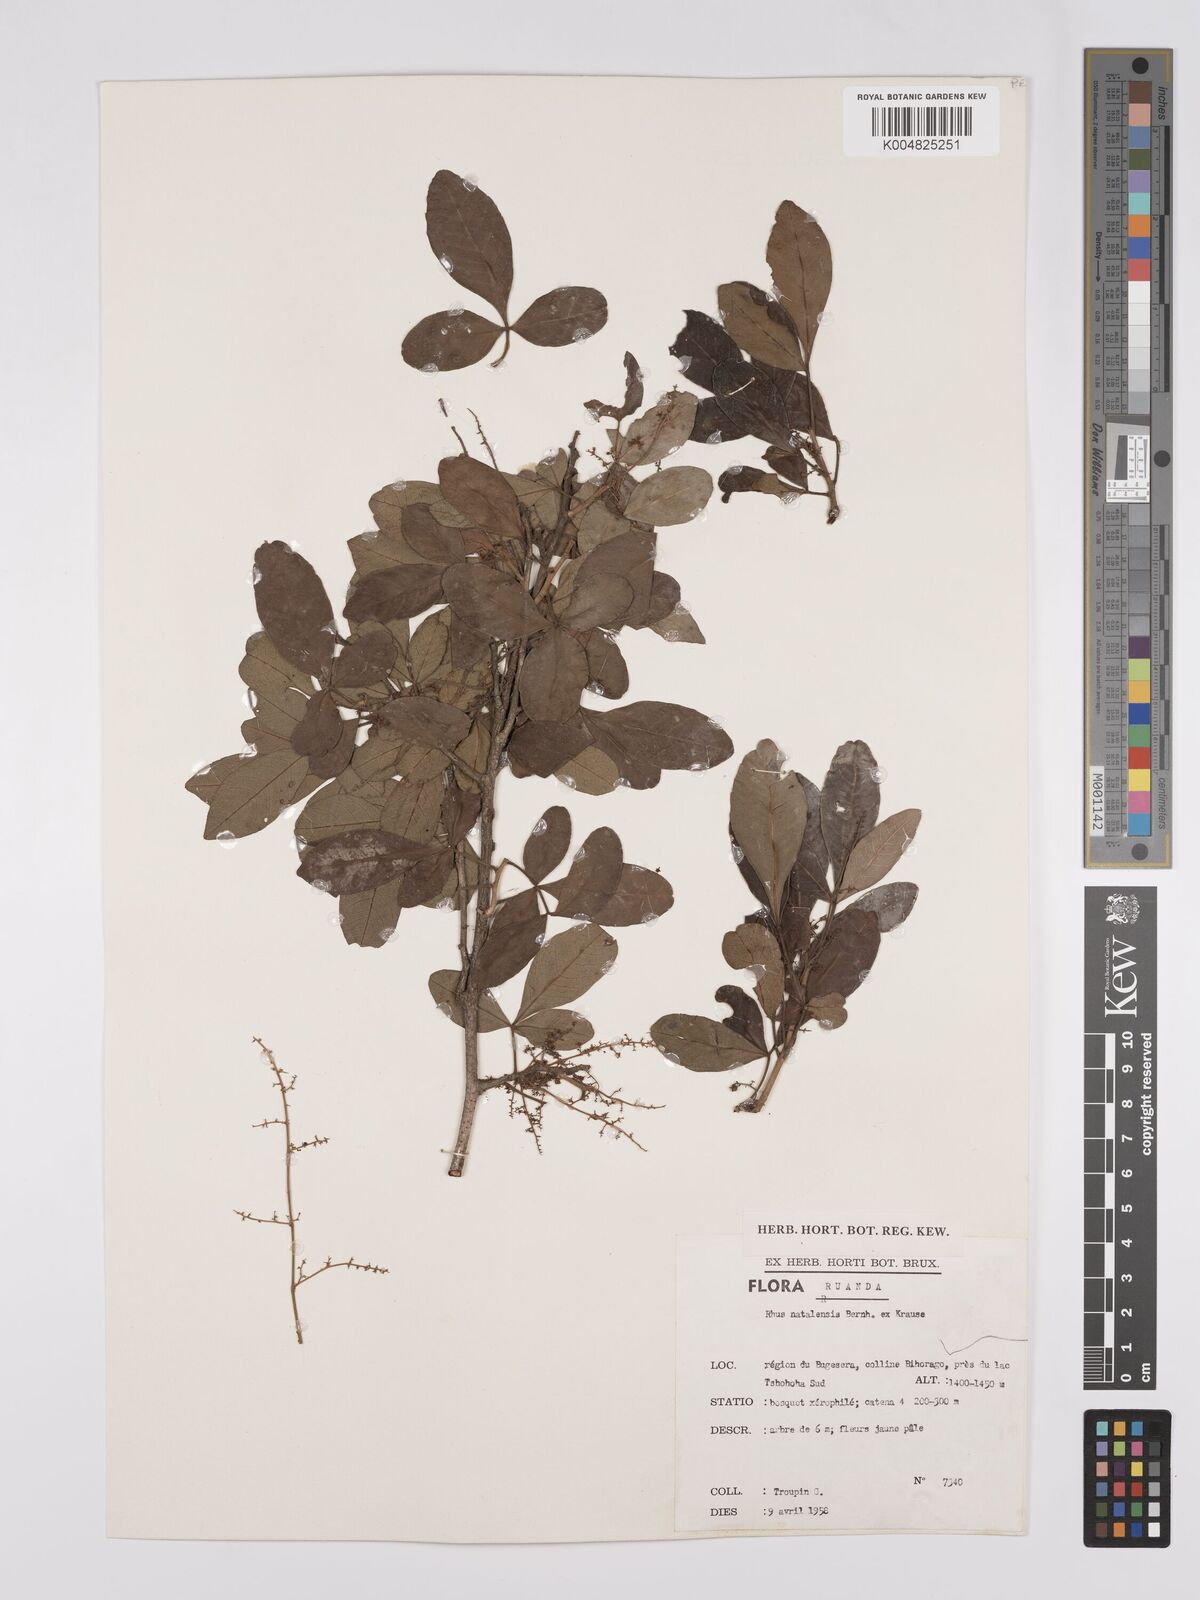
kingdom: Plantae
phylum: Tracheophyta
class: Magnoliopsida
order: Sapindales
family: Anacardiaceae
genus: Searsia
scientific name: Searsia natalensis
